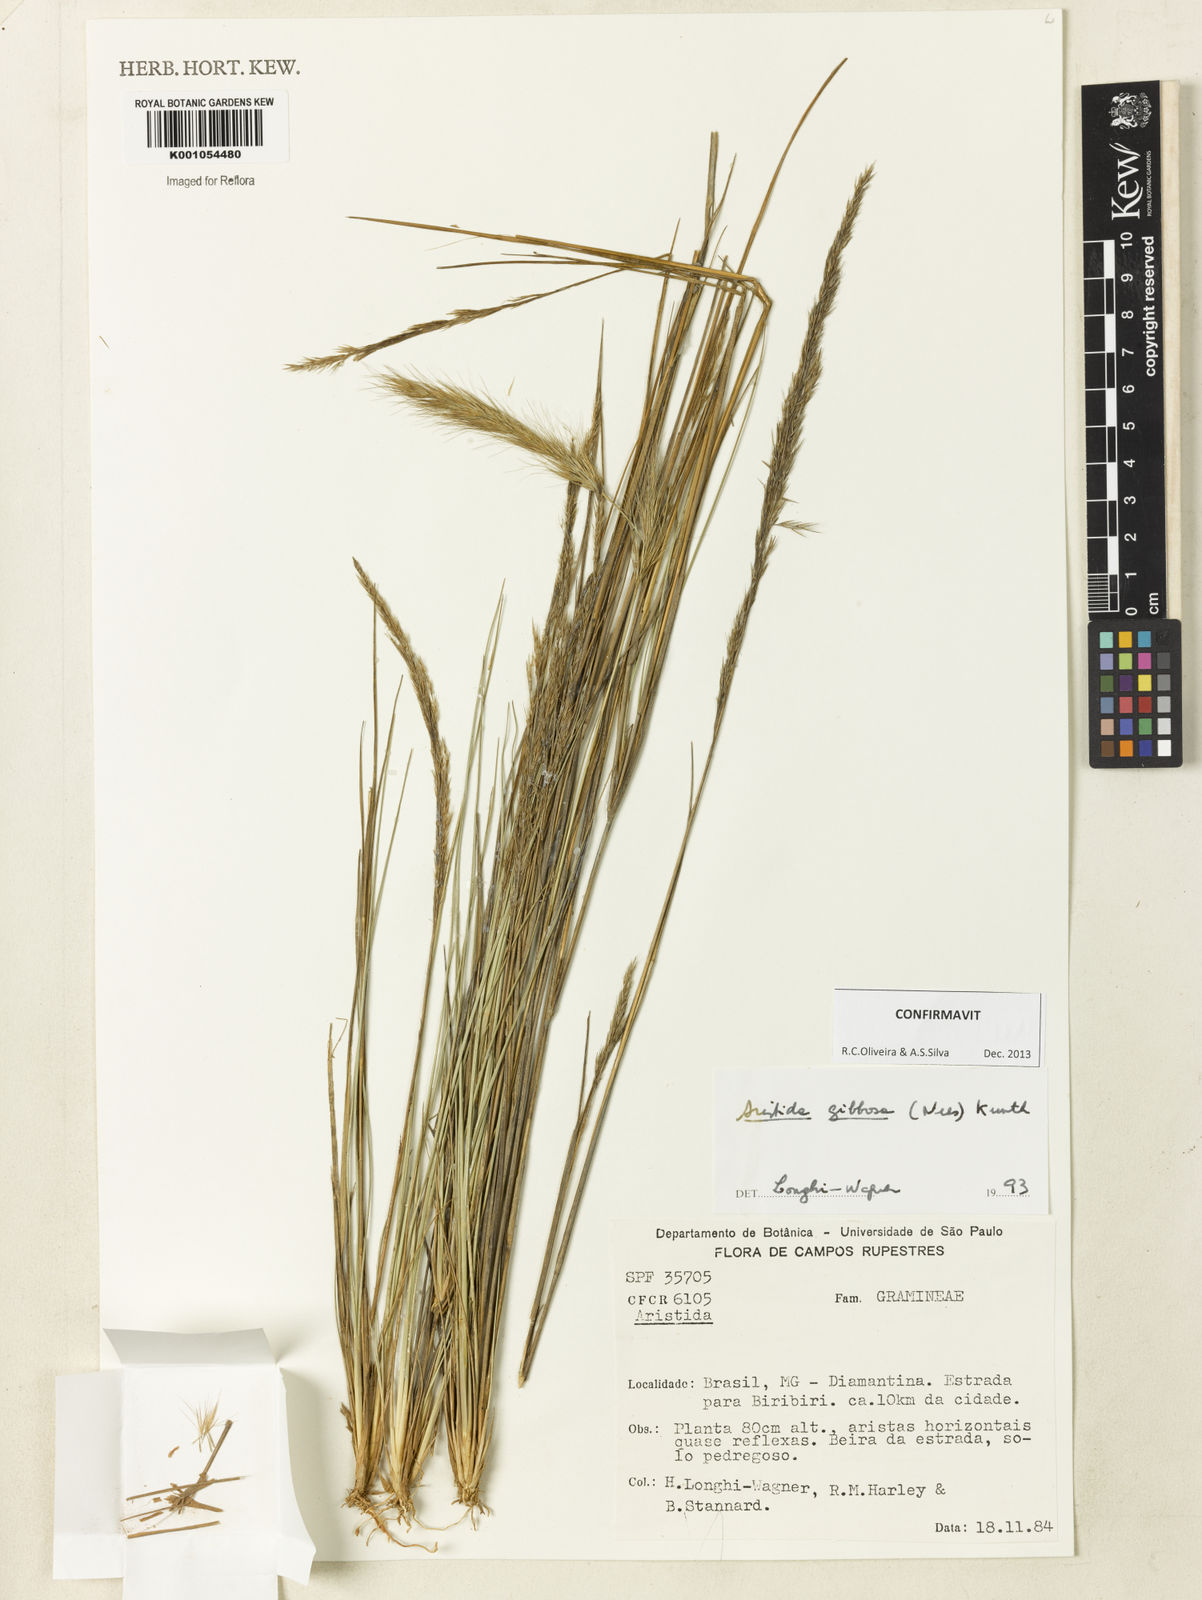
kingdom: Plantae
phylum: Tracheophyta
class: Liliopsida
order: Poales
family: Poaceae
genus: Aristida
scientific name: Aristida gibbosa
